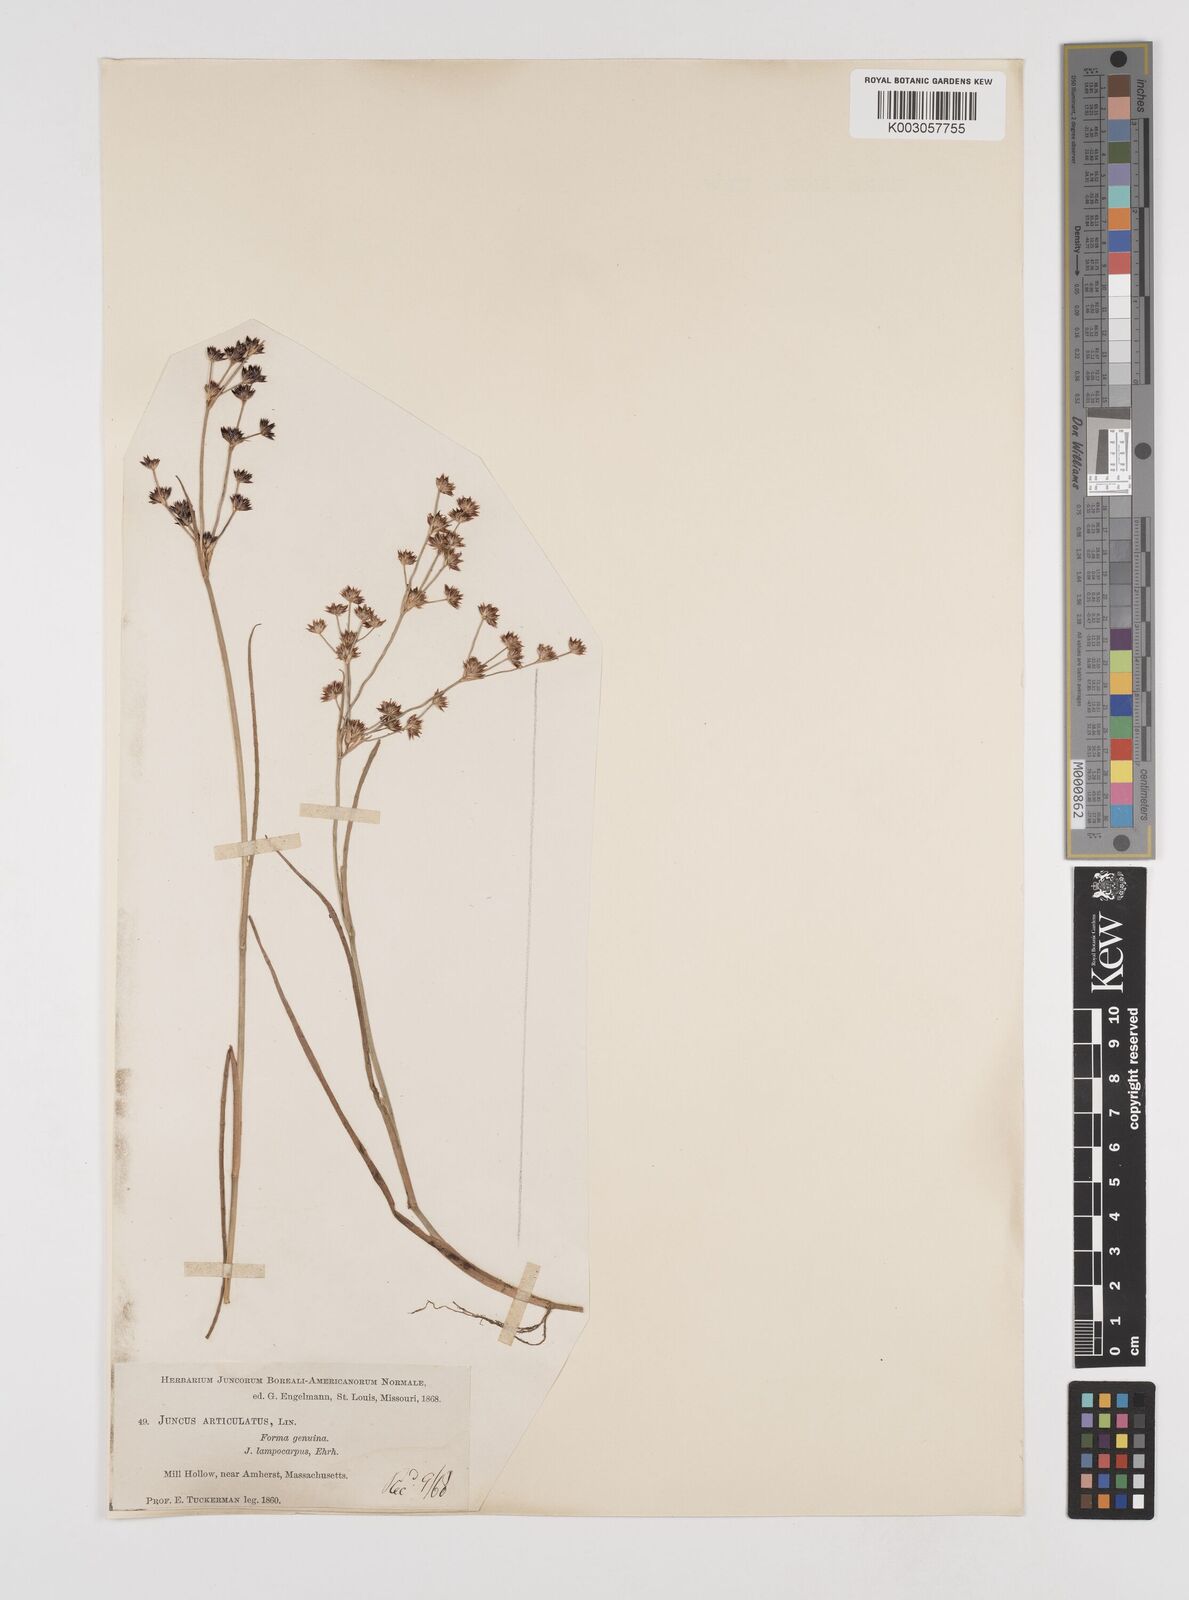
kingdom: Plantae
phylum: Tracheophyta
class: Liliopsida
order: Poales
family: Juncaceae
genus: Juncus
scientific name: Juncus articulatus
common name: Jointed rush
